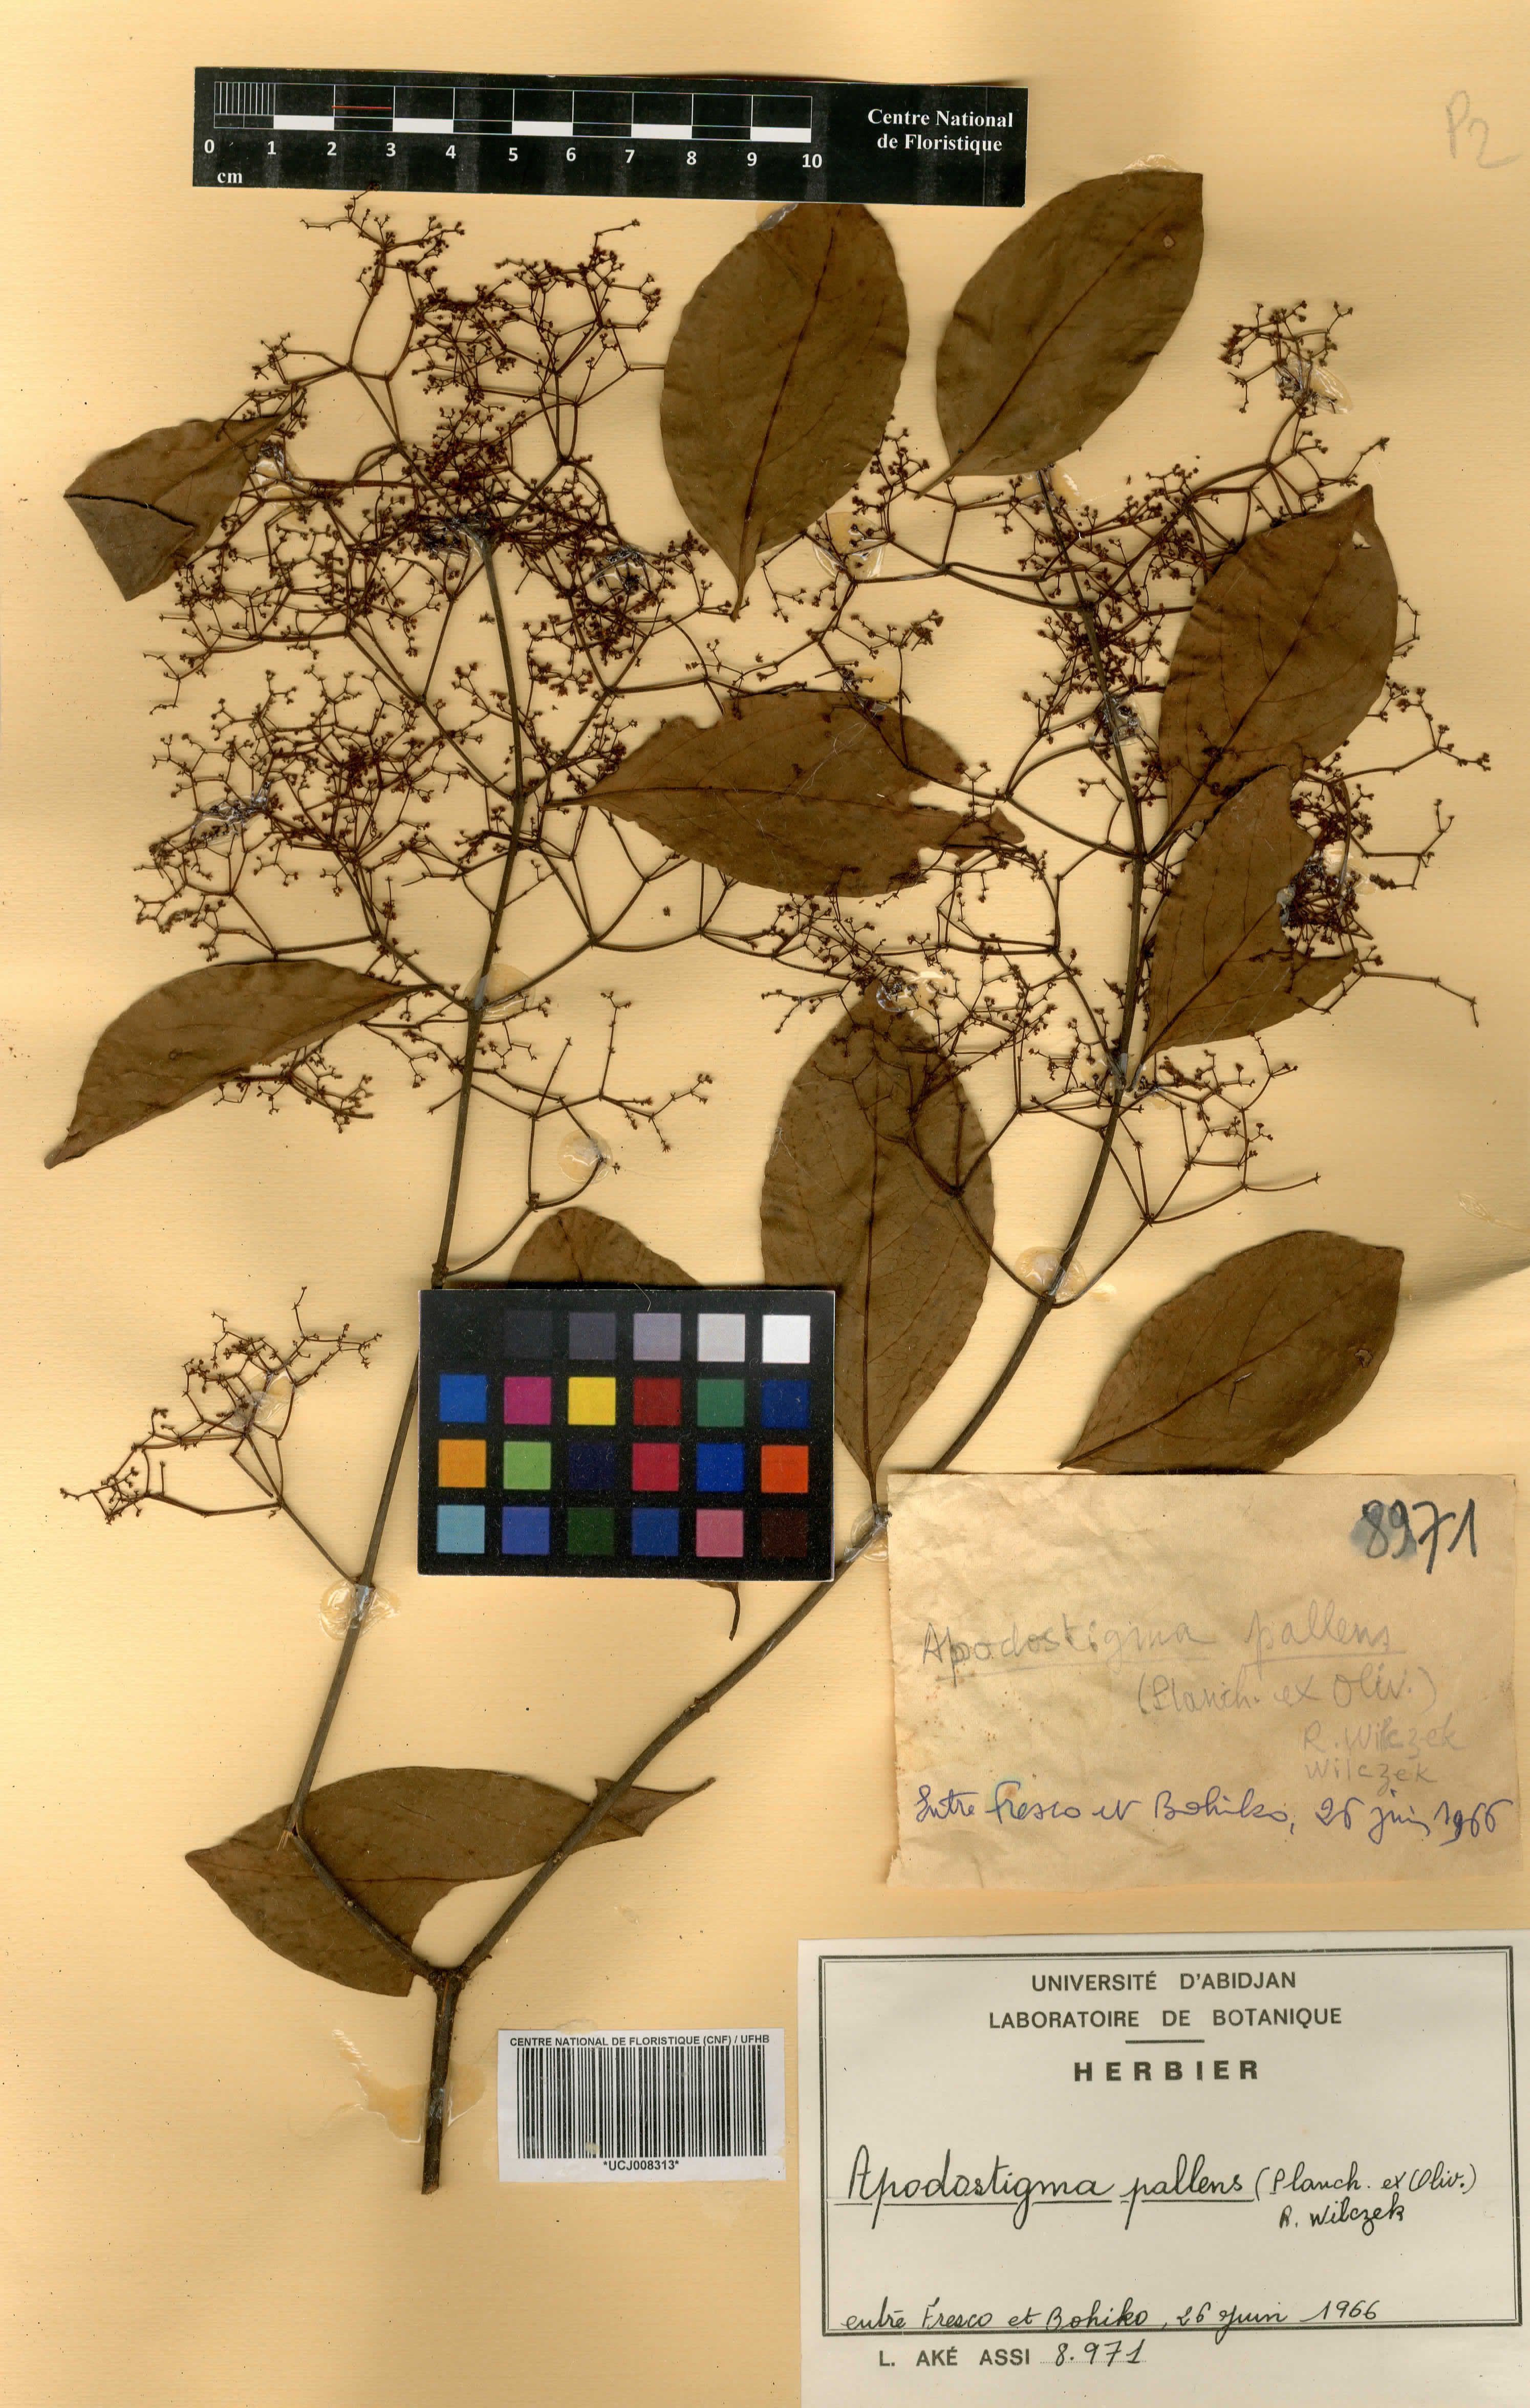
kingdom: Plantae
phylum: Tracheophyta
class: Magnoliopsida
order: Celastrales
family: Celastraceae
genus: Apodostigma
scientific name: Apodostigma pallens
